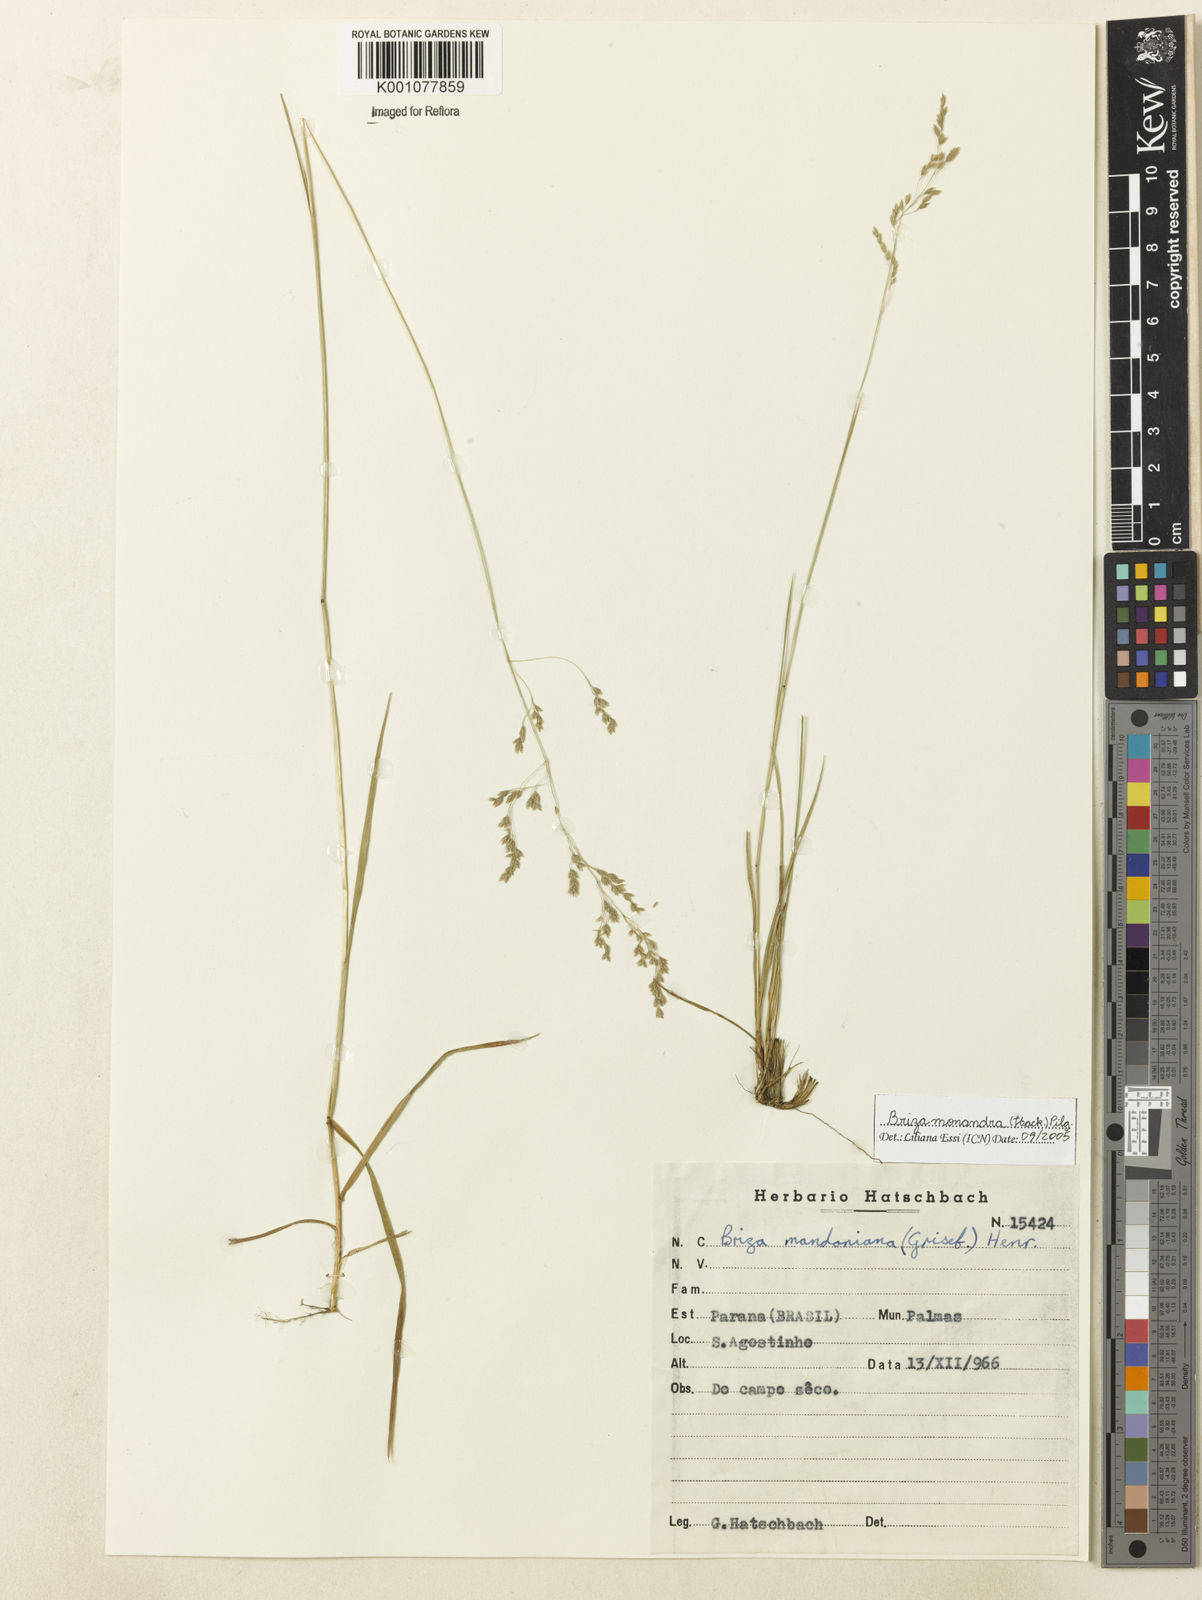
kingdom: Plantae
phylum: Tracheophyta
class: Liliopsida
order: Poales
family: Poaceae
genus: Poidium
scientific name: Poidium monandrum
